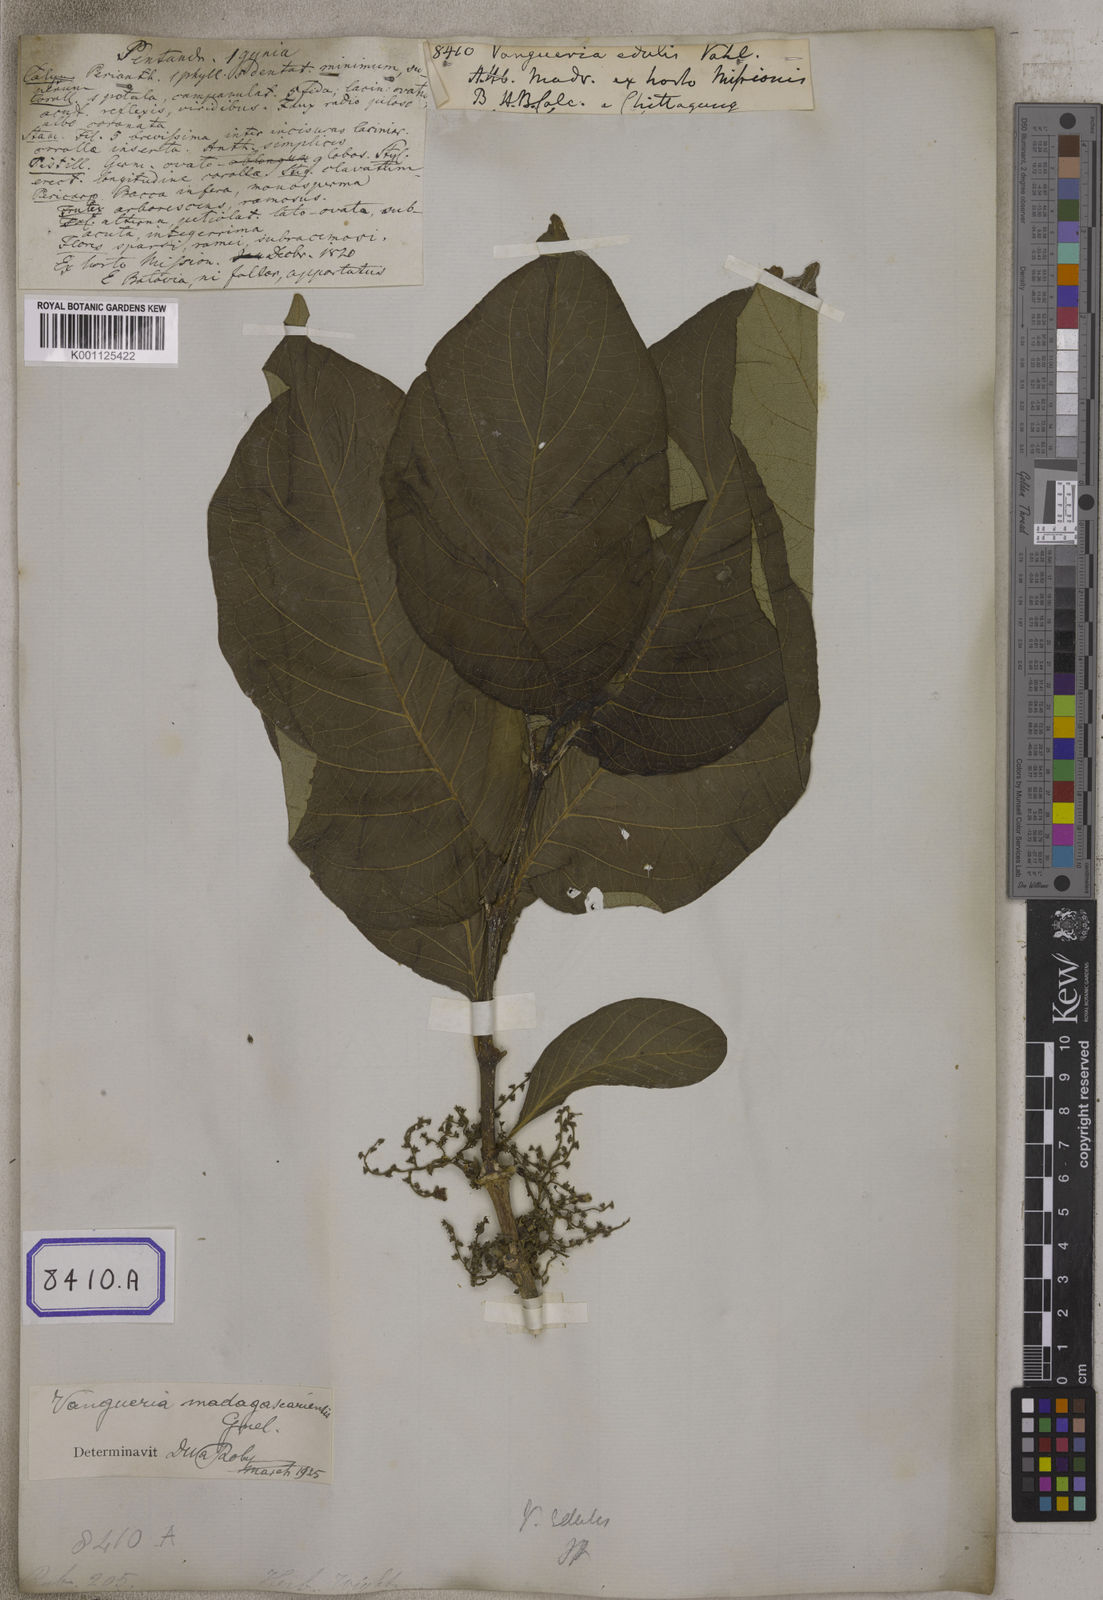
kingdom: Plantae
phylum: Tracheophyta
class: Magnoliopsida
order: Gentianales
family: Rubiaceae
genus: Vangueria
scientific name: Vangueria madagascariensis
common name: Smooth wild-medlar
